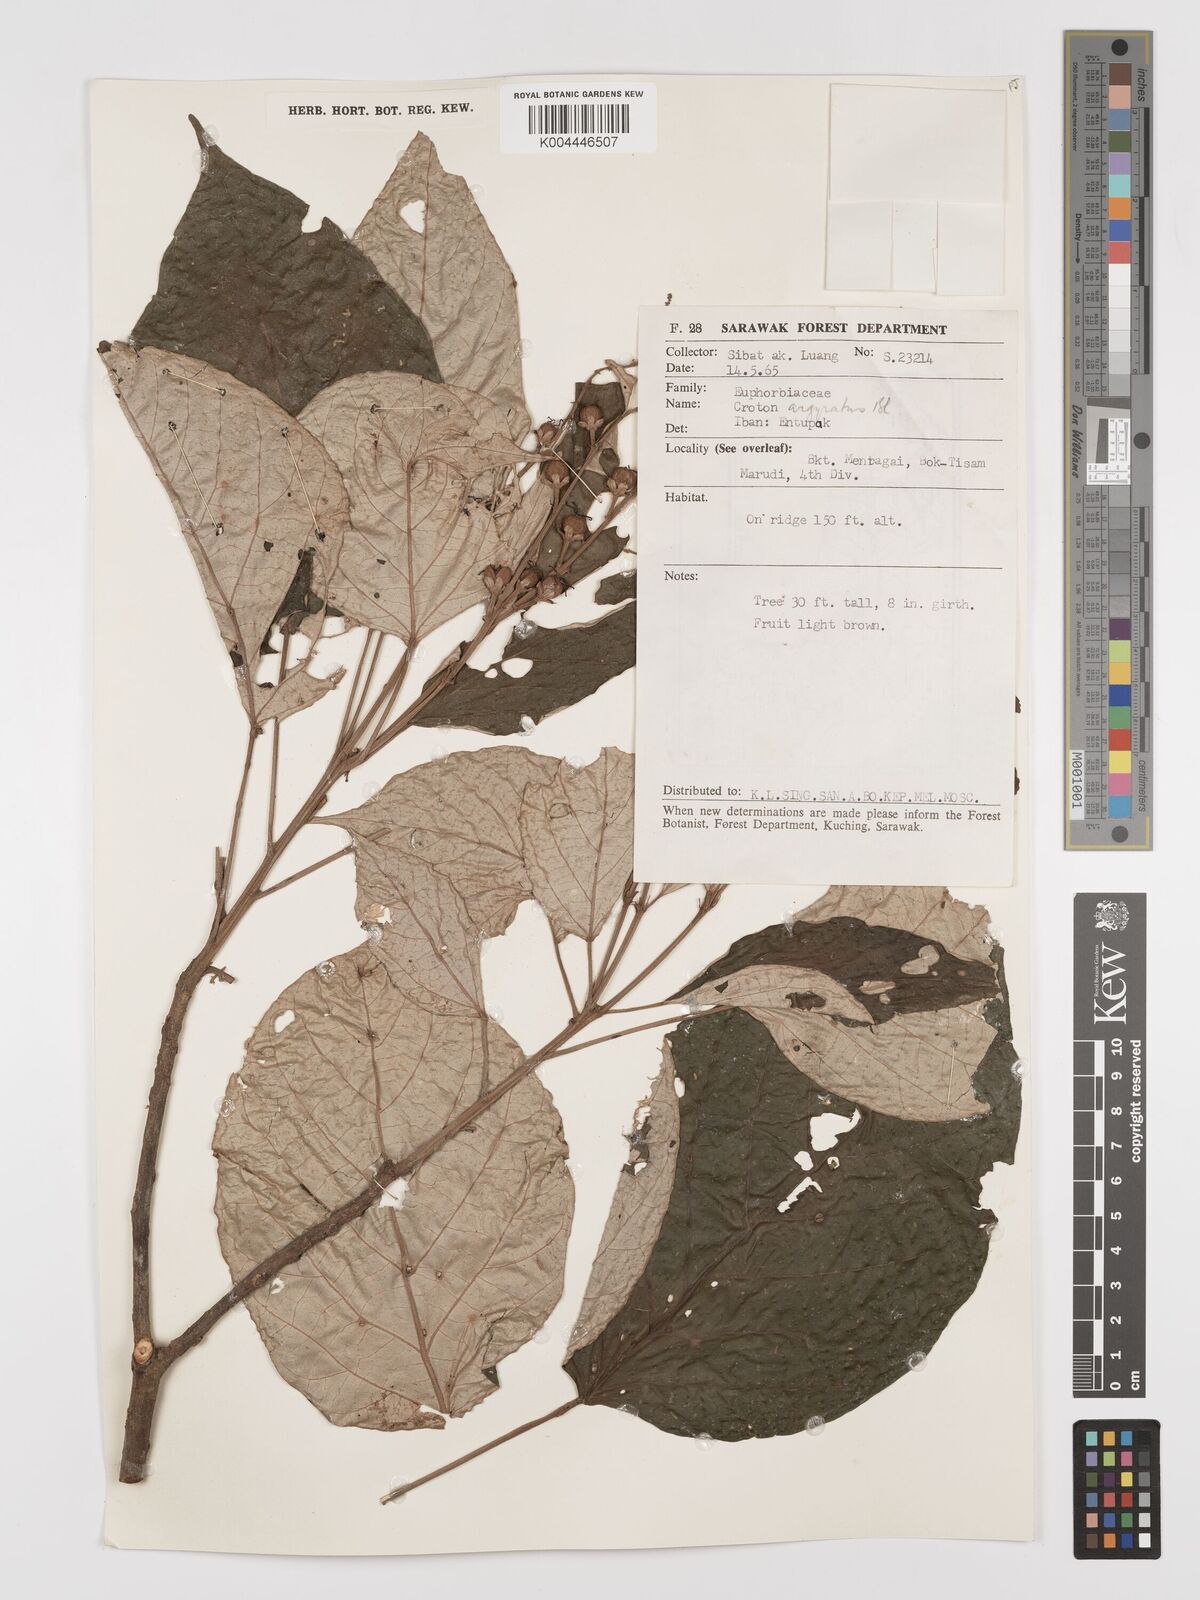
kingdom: Plantae
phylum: Tracheophyta
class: Magnoliopsida
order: Malpighiales
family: Euphorbiaceae
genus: Croton
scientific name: Croton argyratus
